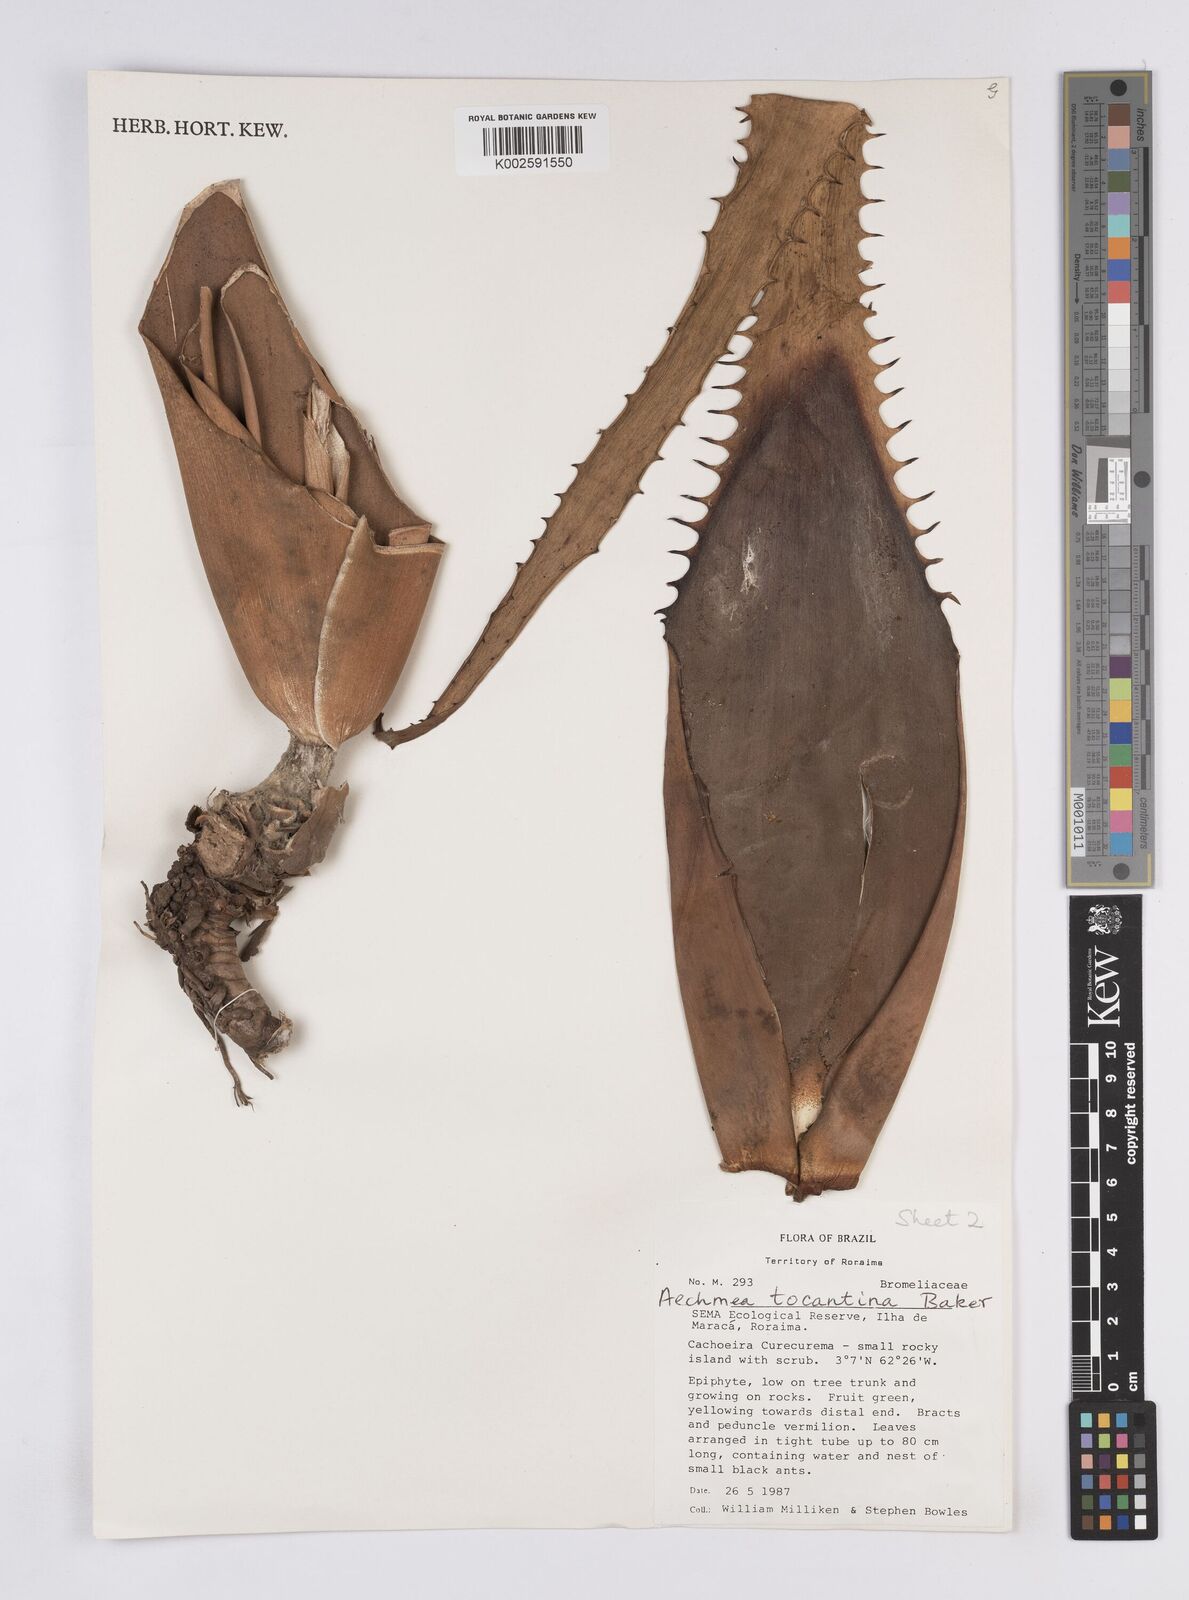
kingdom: Plantae
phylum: Tracheophyta
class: Liliopsida
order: Poales
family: Bromeliaceae
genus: Aechmea
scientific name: Aechmea tocantina
